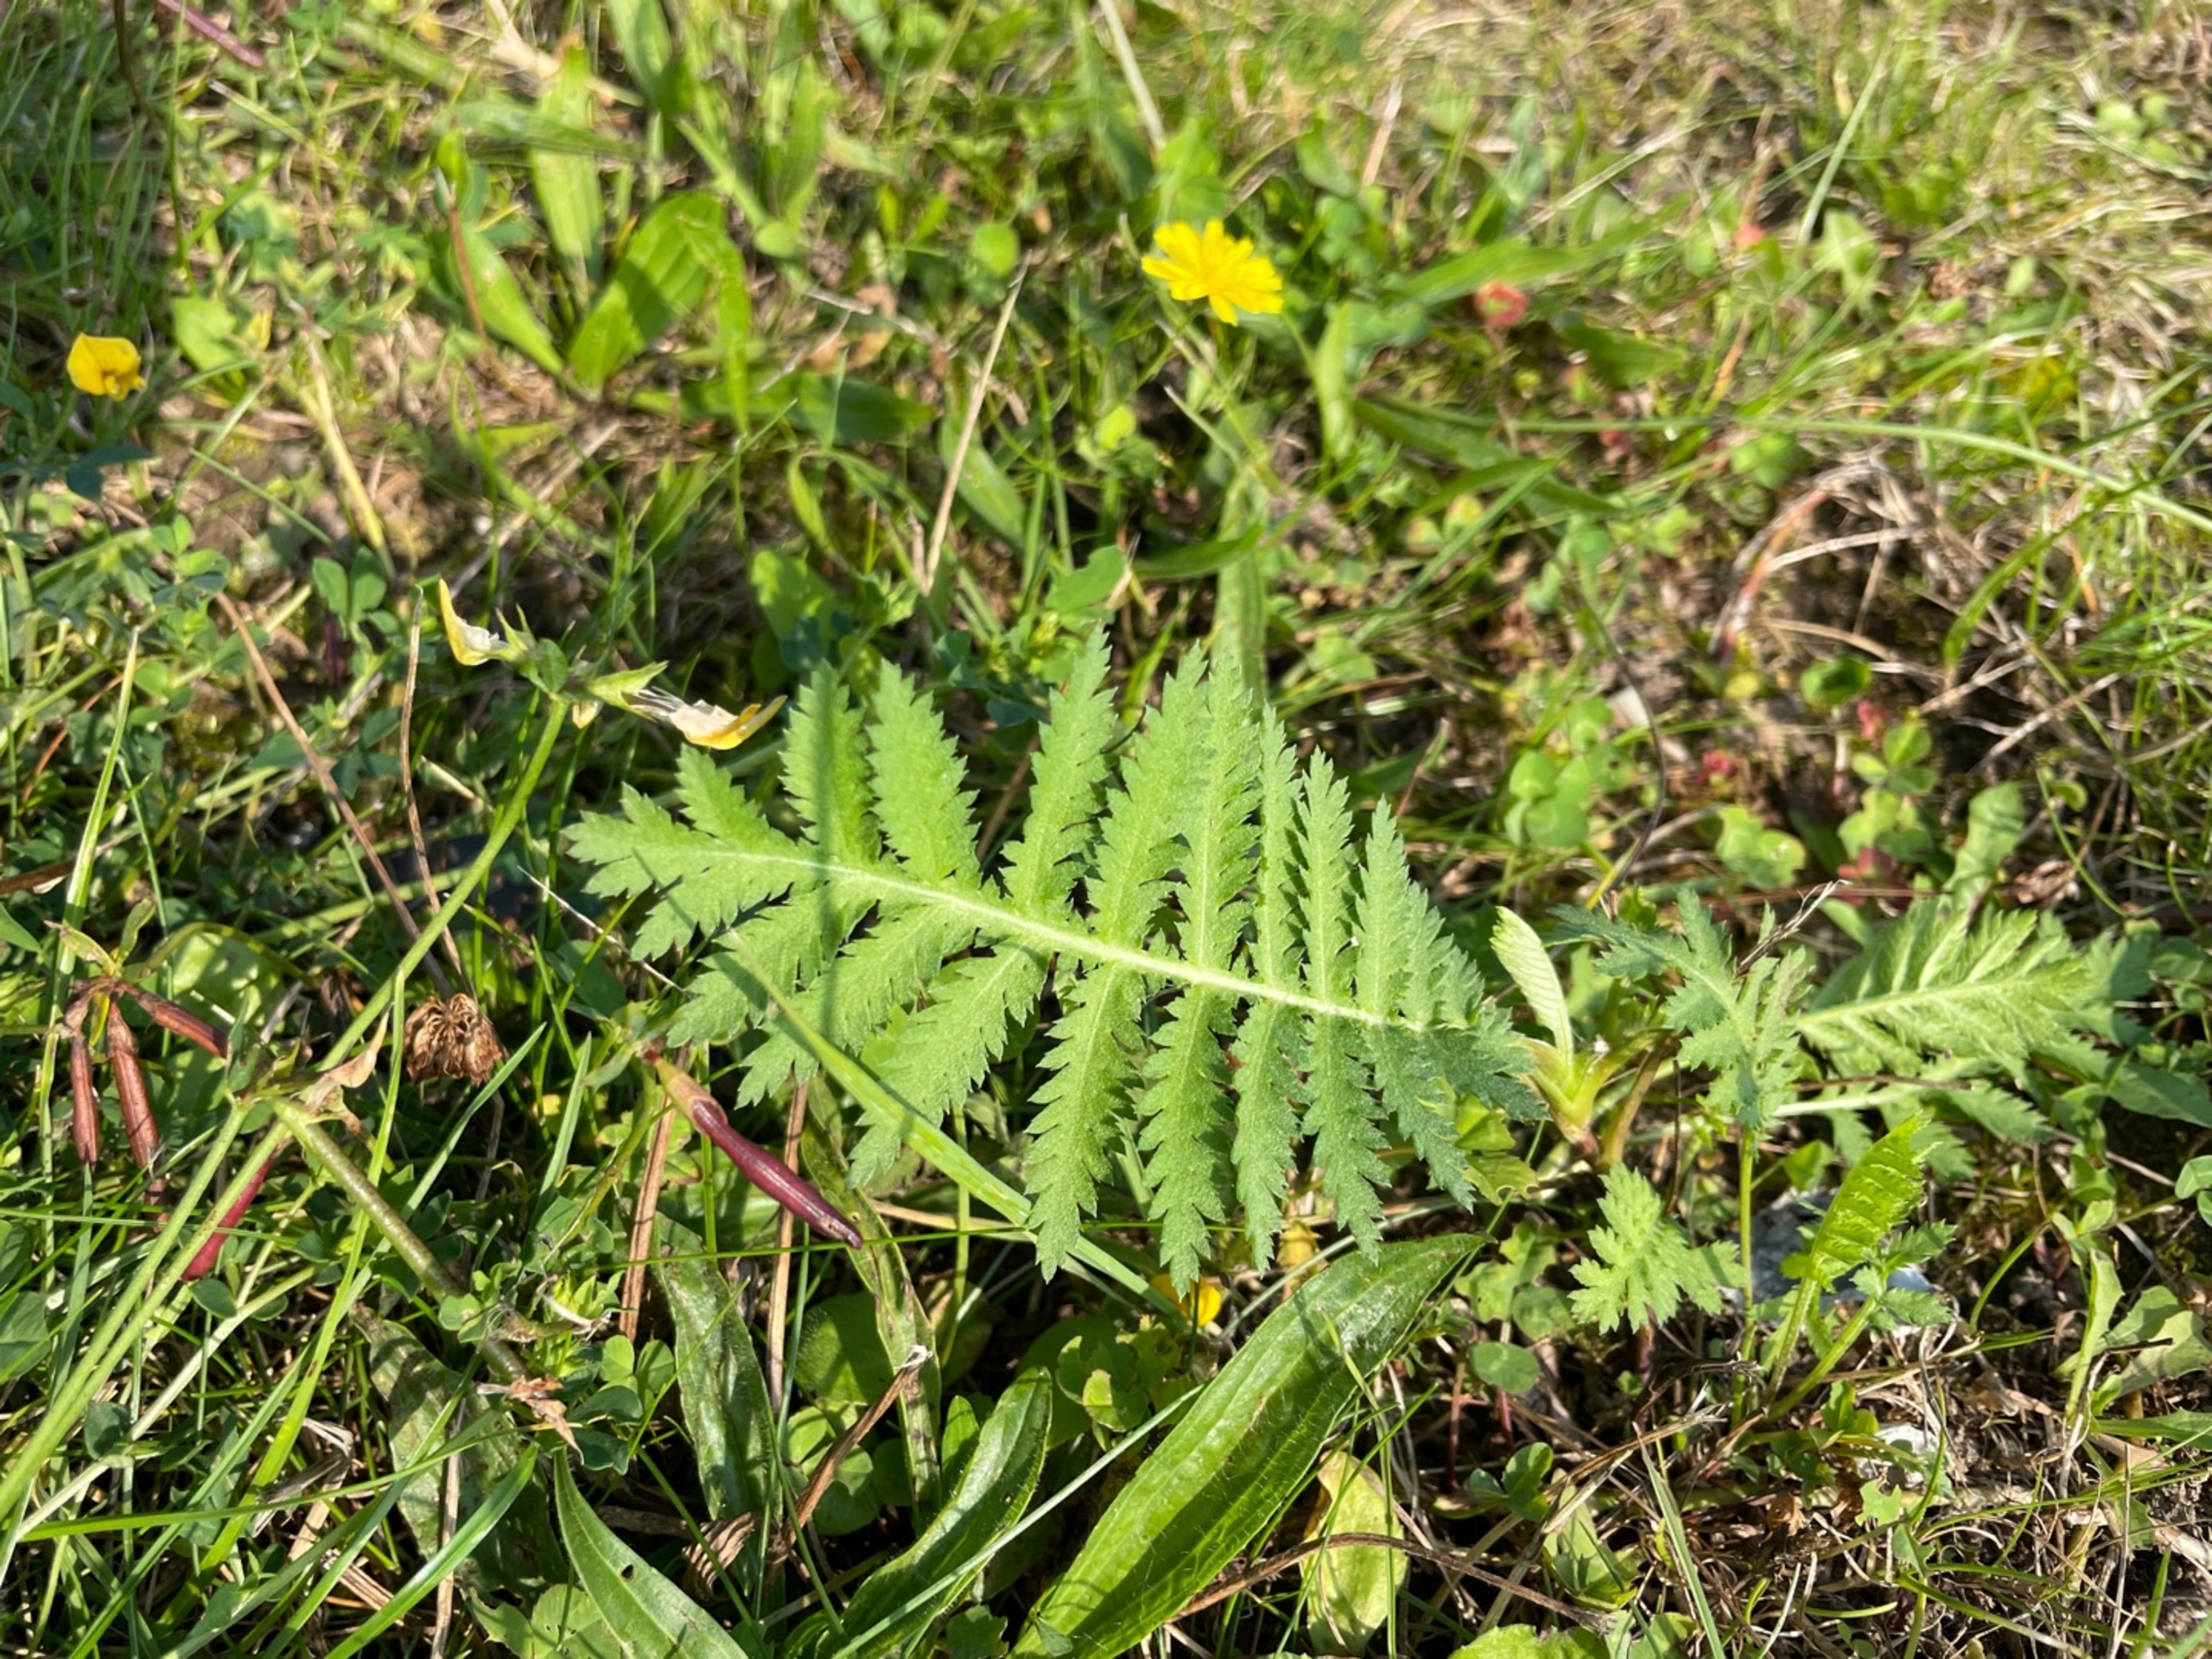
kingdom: Plantae
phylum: Tracheophyta
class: Magnoliopsida
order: Asterales
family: Asteraceae
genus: Tanacetum
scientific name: Tanacetum vulgare
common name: Rejnfan
